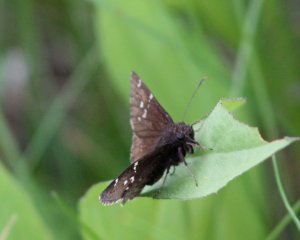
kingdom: Animalia
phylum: Arthropoda
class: Insecta
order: Lepidoptera
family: Hesperiidae
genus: Autochton
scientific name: Autochton
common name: Northern Cloudywing
